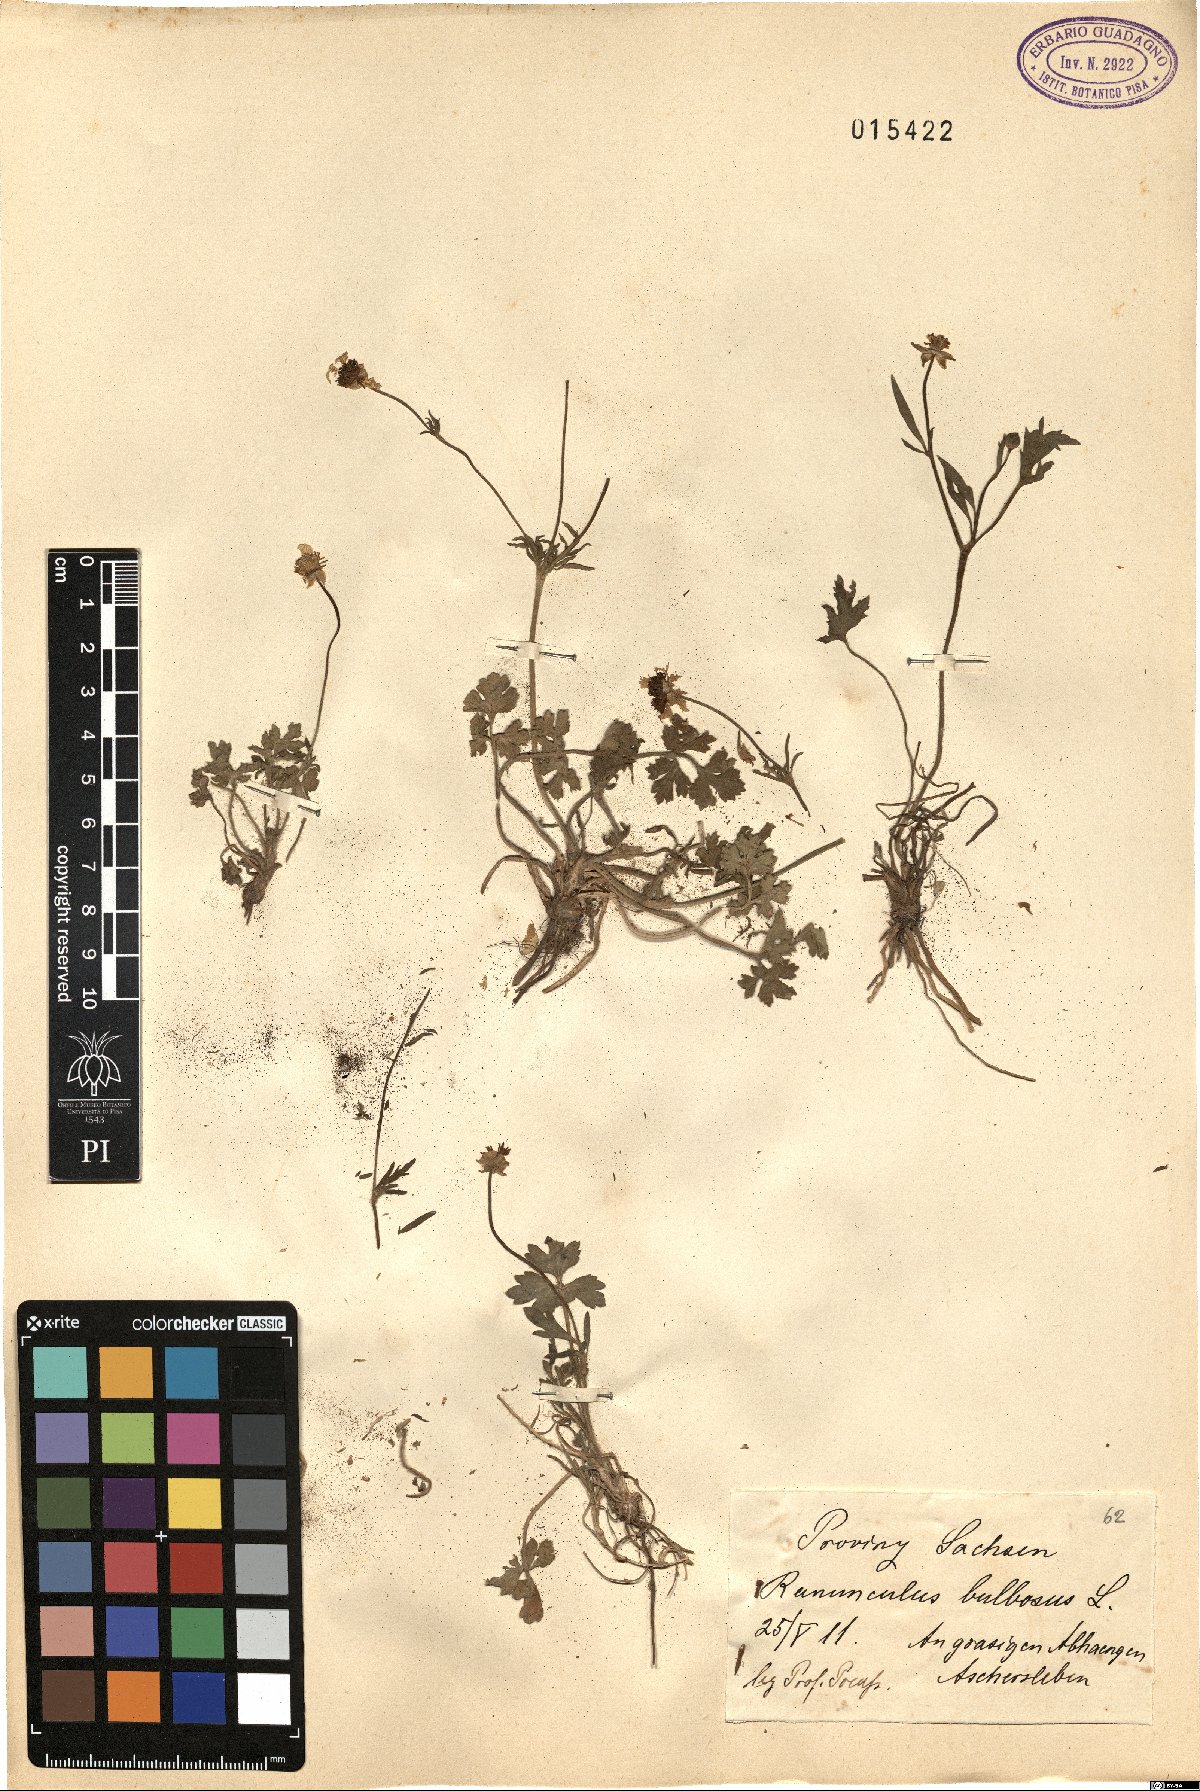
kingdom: Plantae
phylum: Tracheophyta
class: Magnoliopsida
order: Ranunculales
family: Ranunculaceae
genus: Ranunculus
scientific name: Ranunculus bulbosus
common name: Bulbous buttercup
